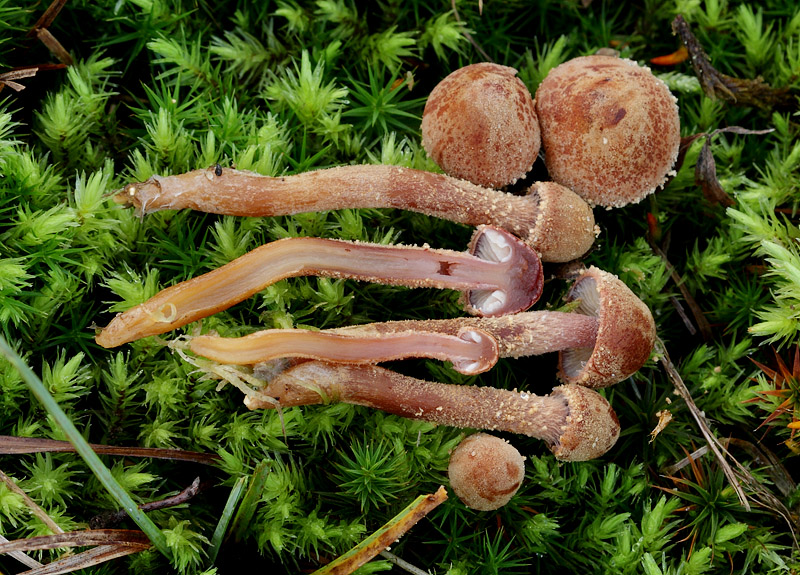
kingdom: Fungi
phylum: Basidiomycota
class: Agaricomycetes
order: Agaricales
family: Tricholomataceae
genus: Cystoderma
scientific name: Cystoderma lilacipes
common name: lillafodet grynhat
